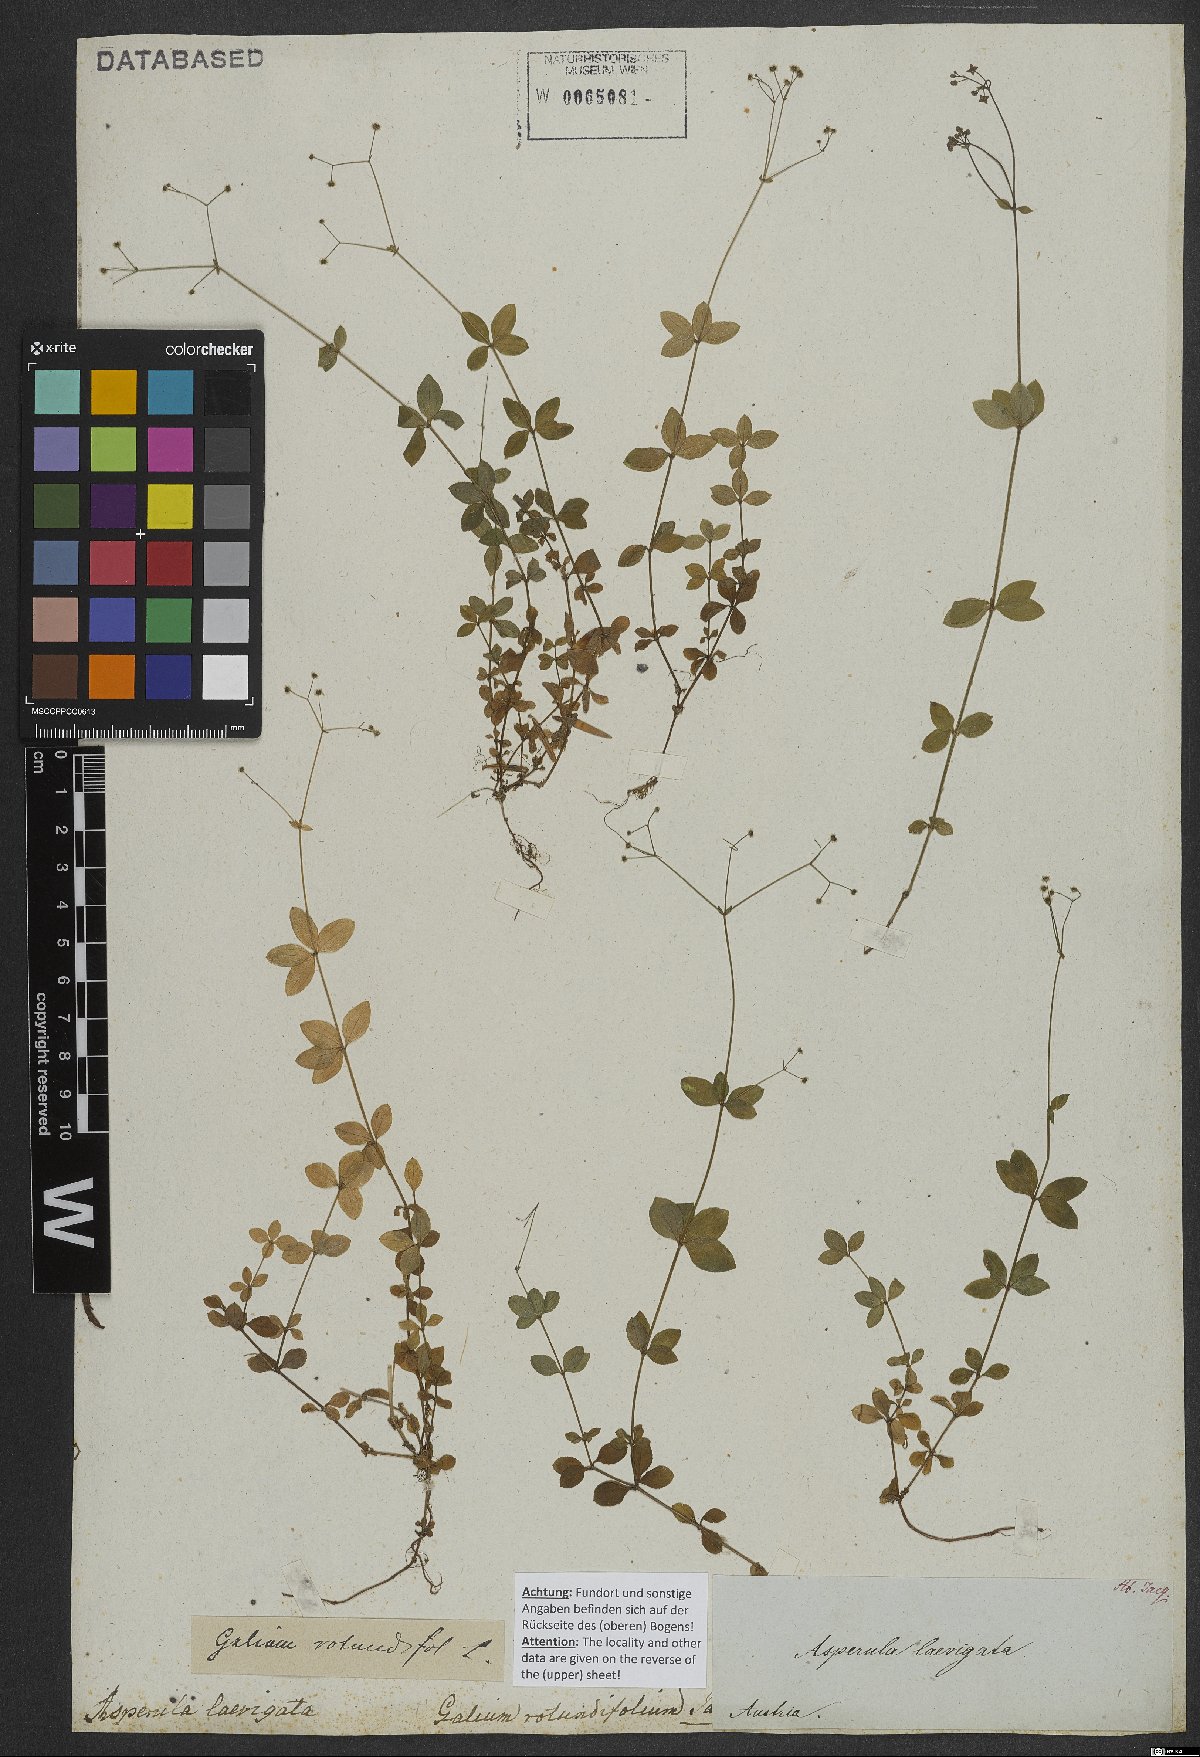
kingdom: Plantae
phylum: Tracheophyta
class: Magnoliopsida
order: Gentianales
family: Rubiaceae
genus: Galium
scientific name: Galium rotundifolium
